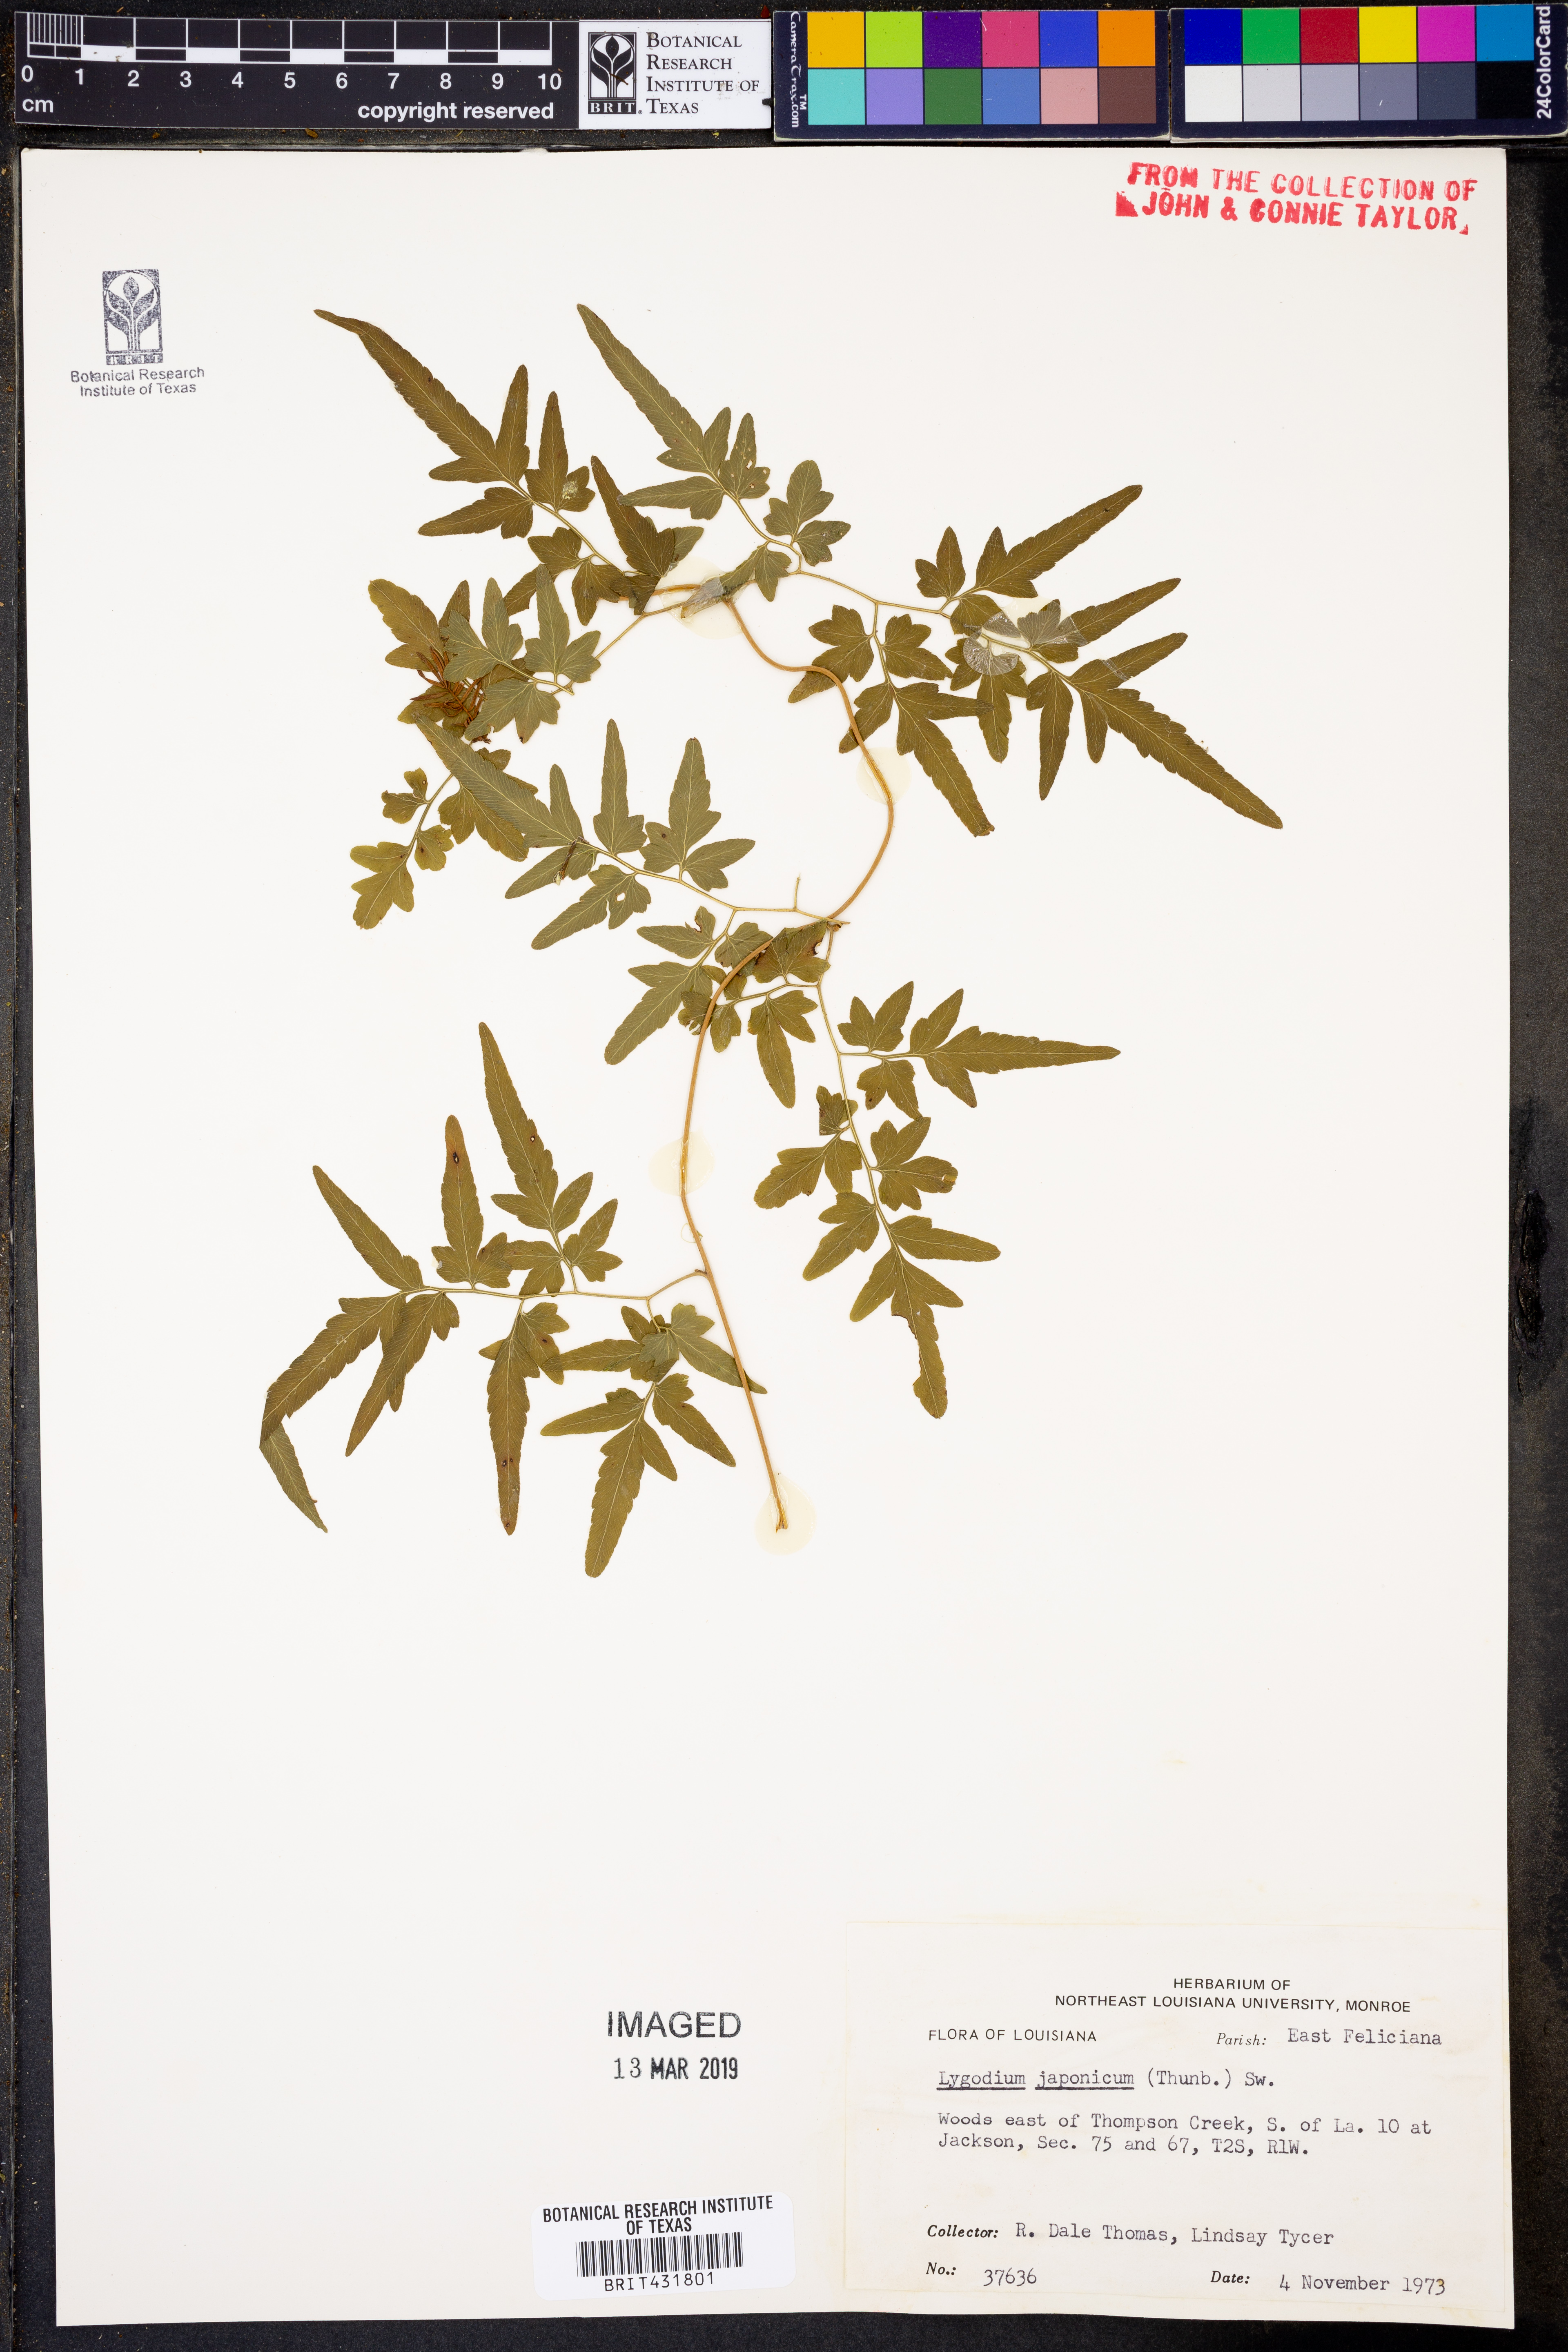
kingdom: Plantae
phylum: Tracheophyta
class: Polypodiopsida
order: Schizaeales
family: Lygodiaceae
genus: Lygodium
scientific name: Lygodium japonicum
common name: Japanese climbing fern
